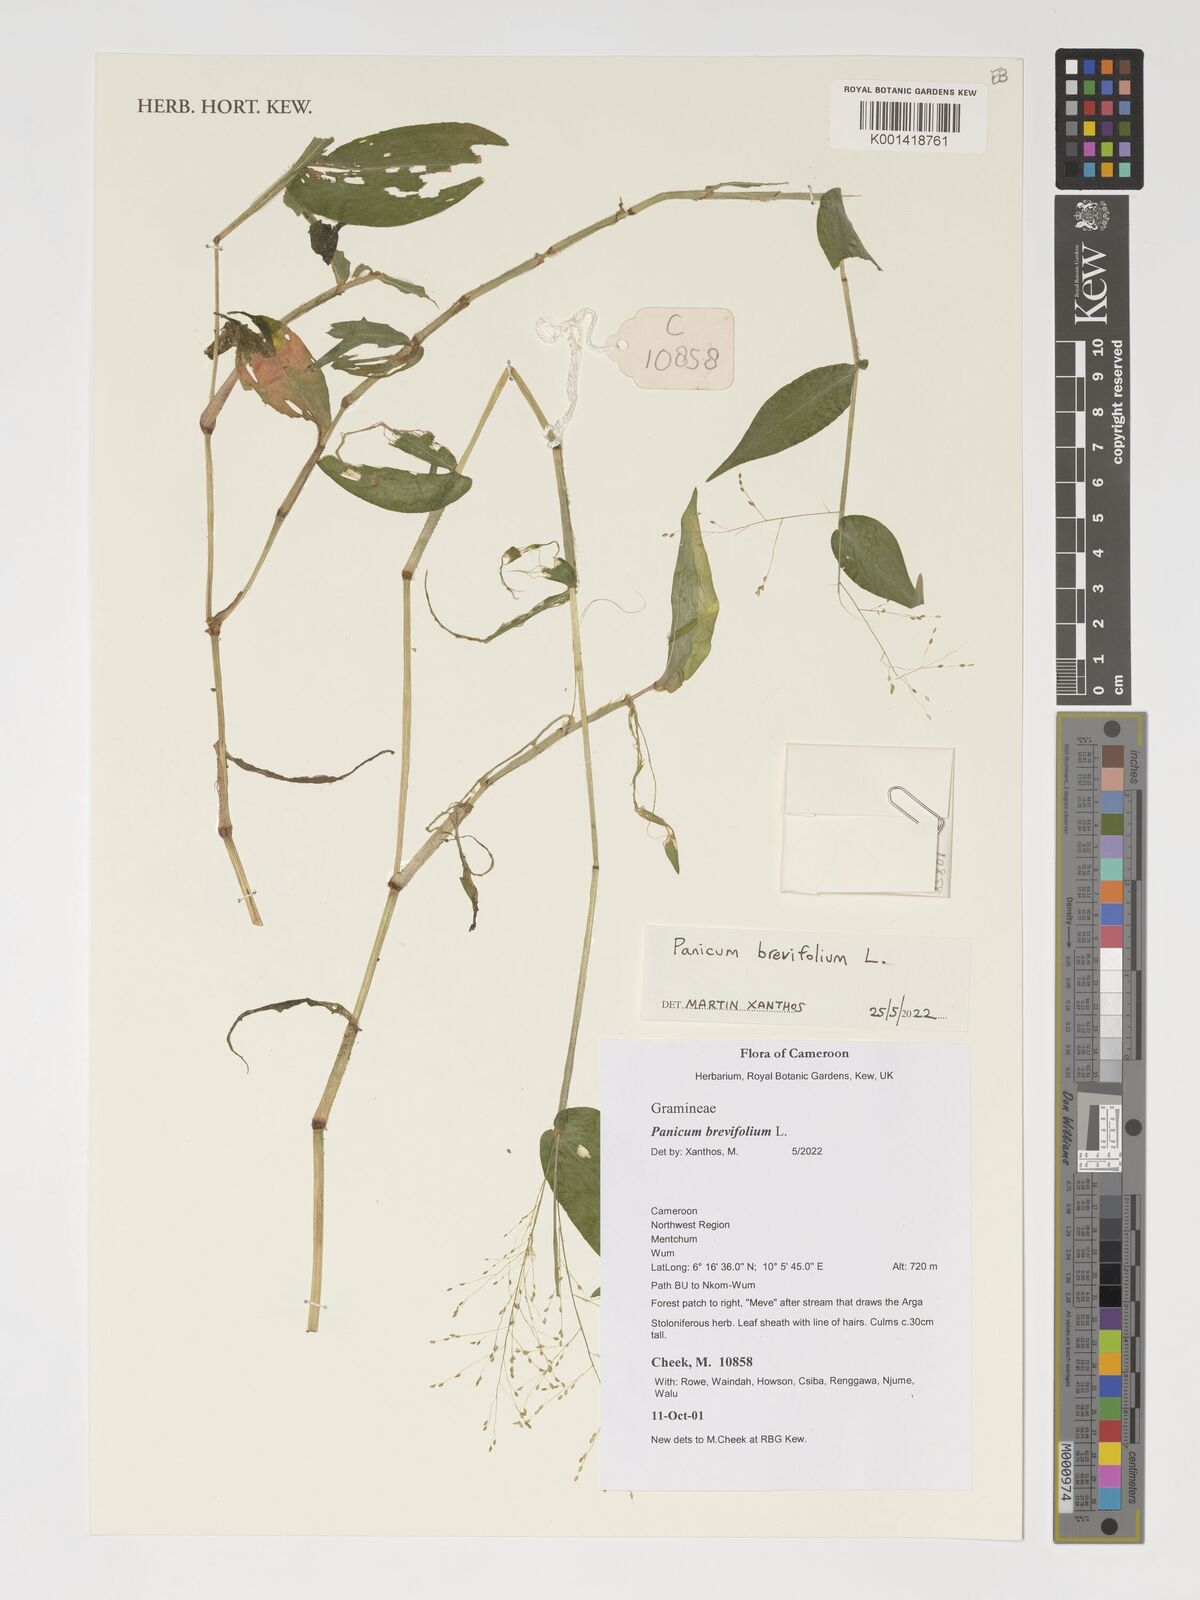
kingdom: Plantae
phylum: Tracheophyta
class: Liliopsida
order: Poales
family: Poaceae
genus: Panicum
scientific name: Panicum brevifolium
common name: Shortleaf panic grass
